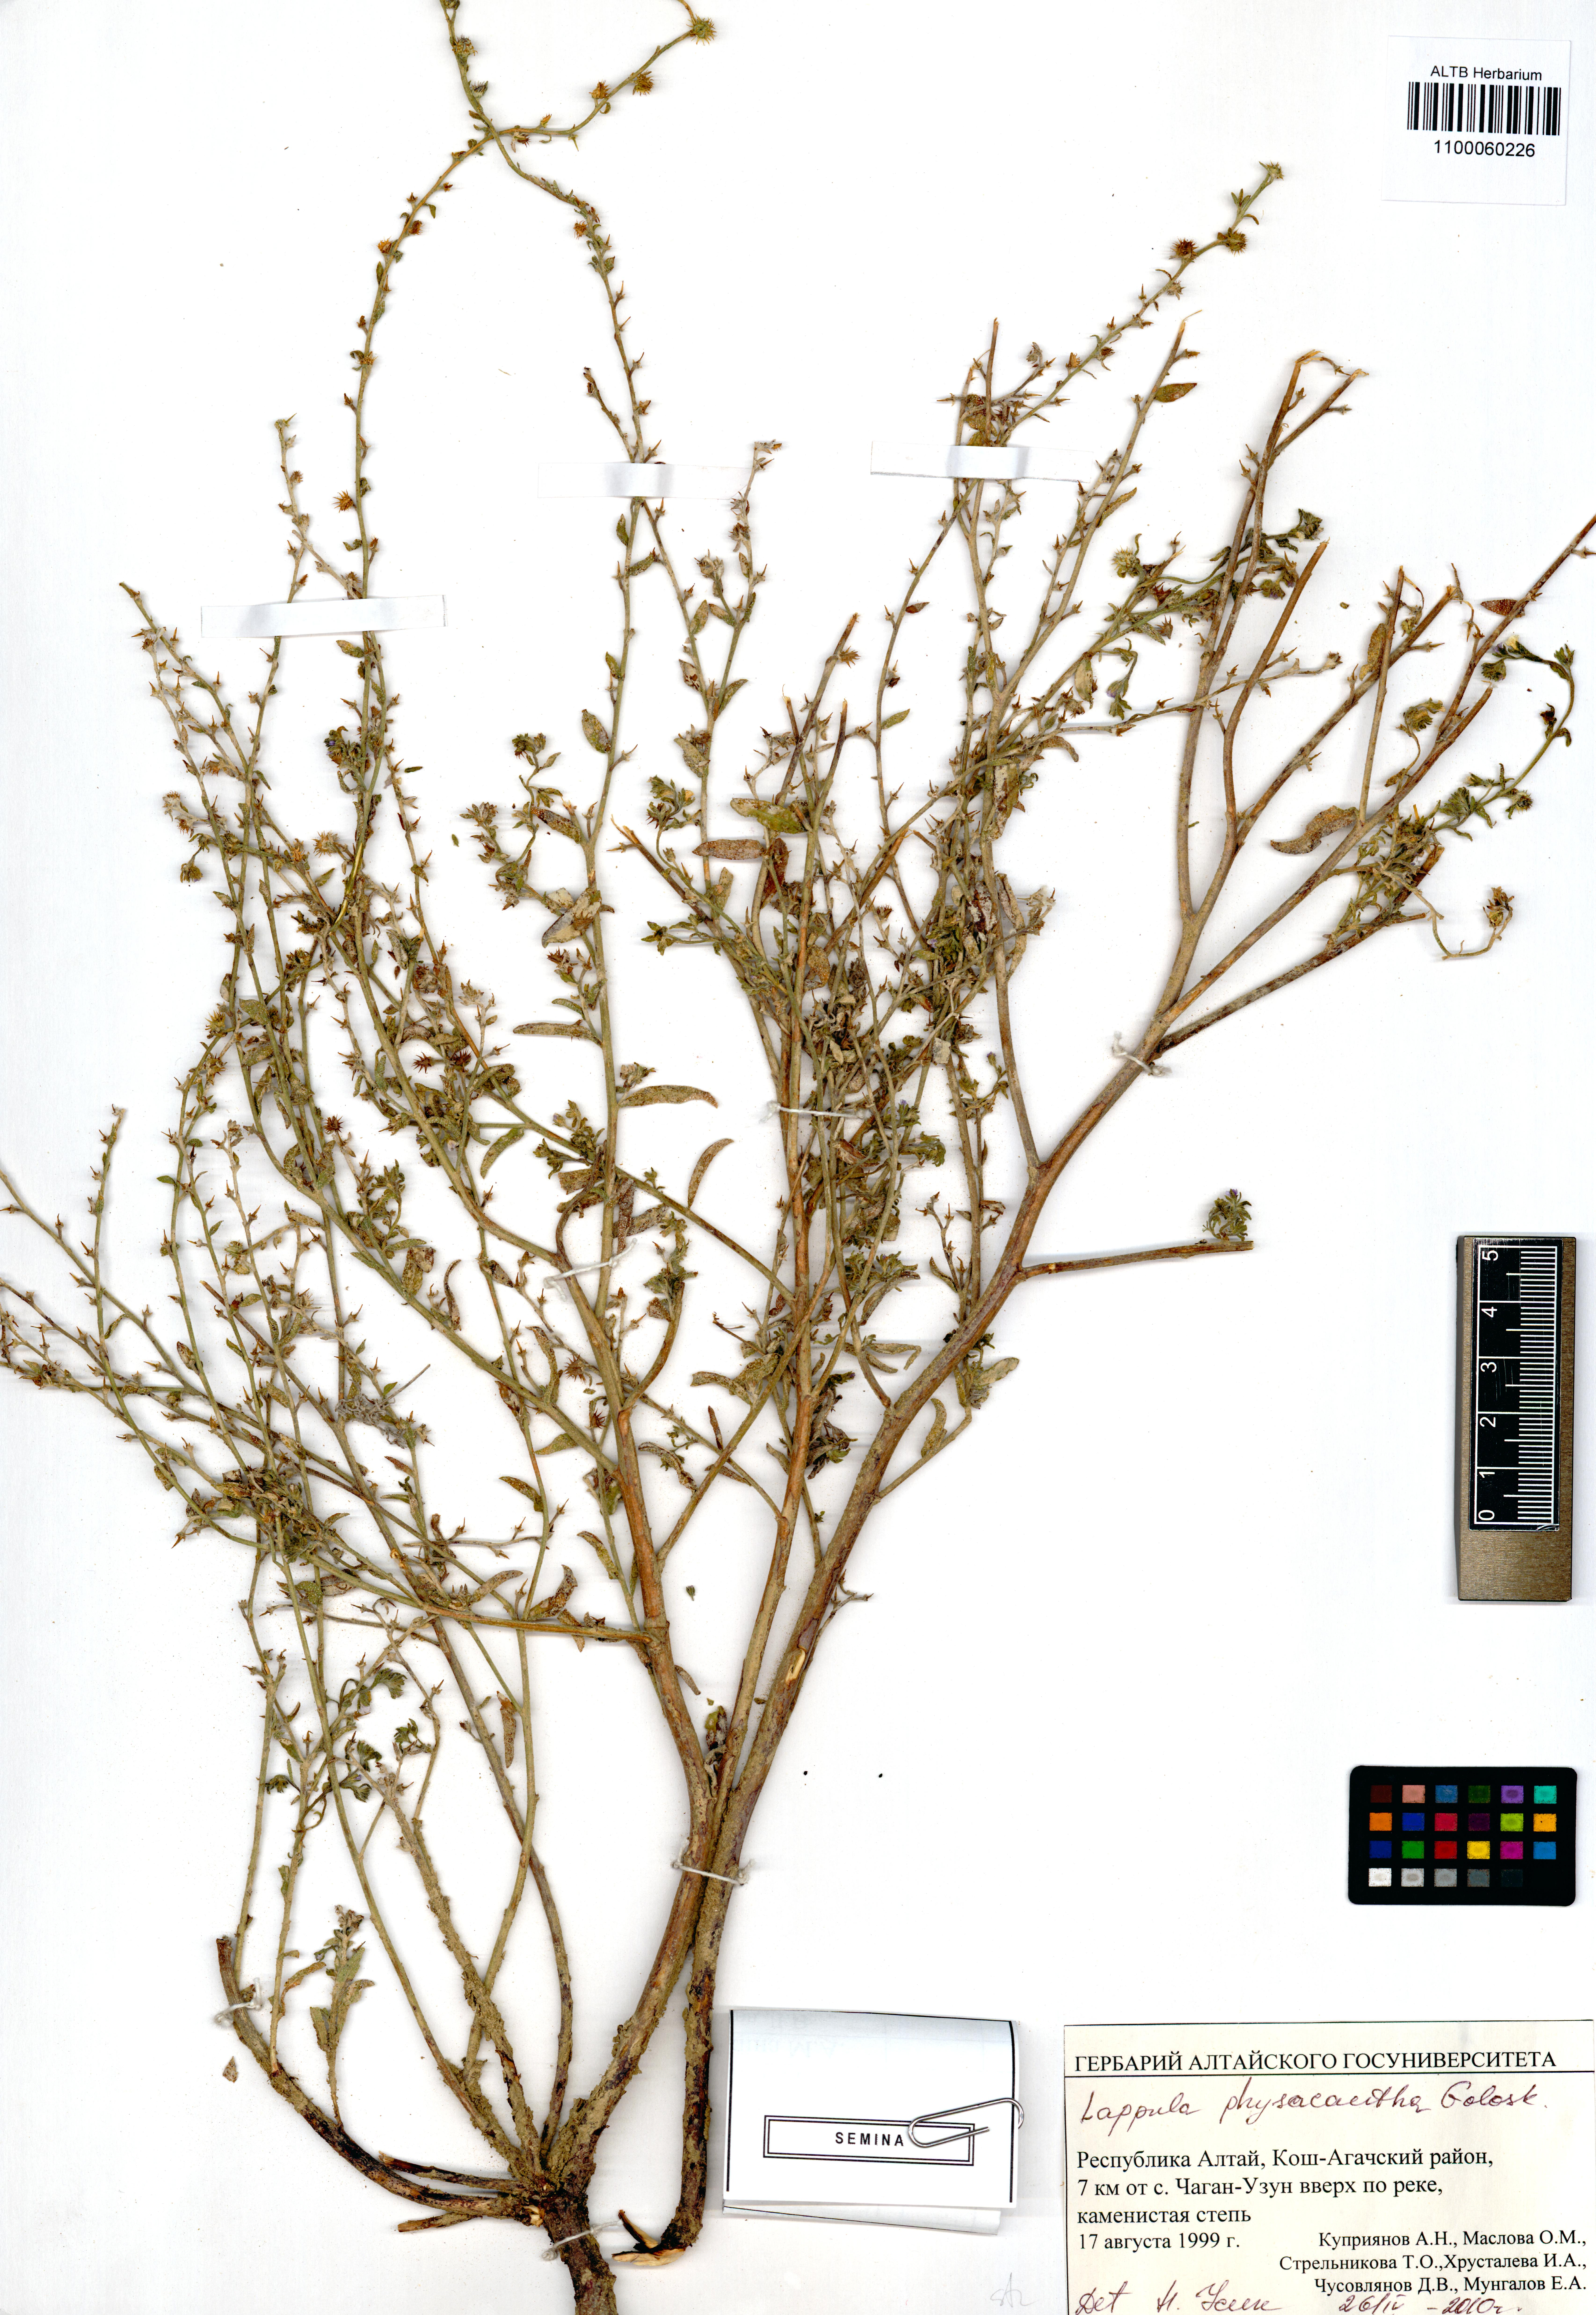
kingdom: Plantae
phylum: Tracheophyta
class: Magnoliopsida
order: Boraginales
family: Boraginaceae
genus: Lappula
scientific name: Lappula physacantha
